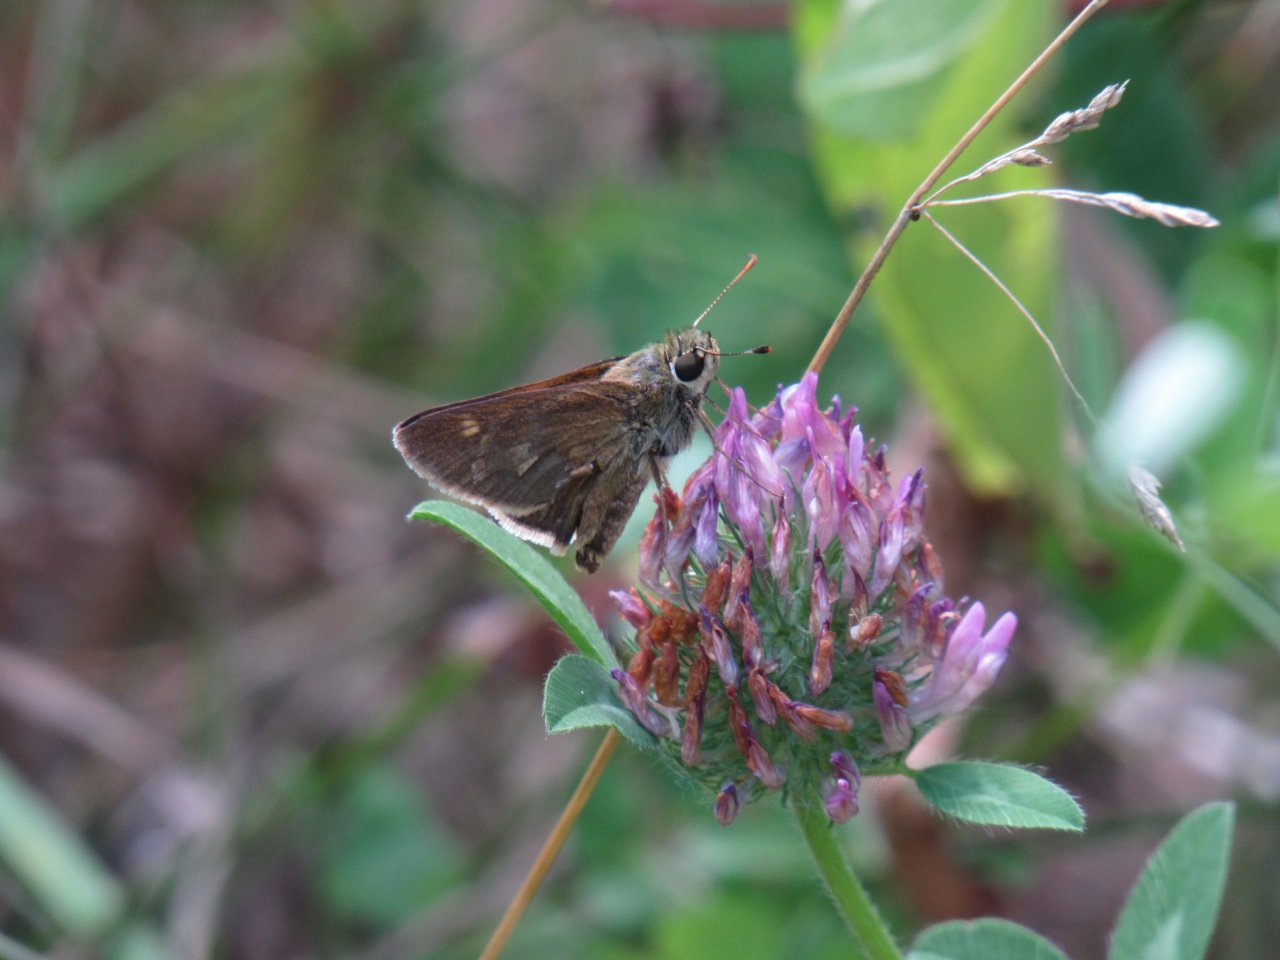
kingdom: Animalia
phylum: Arthropoda
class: Insecta
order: Lepidoptera
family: Hesperiidae
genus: Euphyes
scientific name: Euphyes
